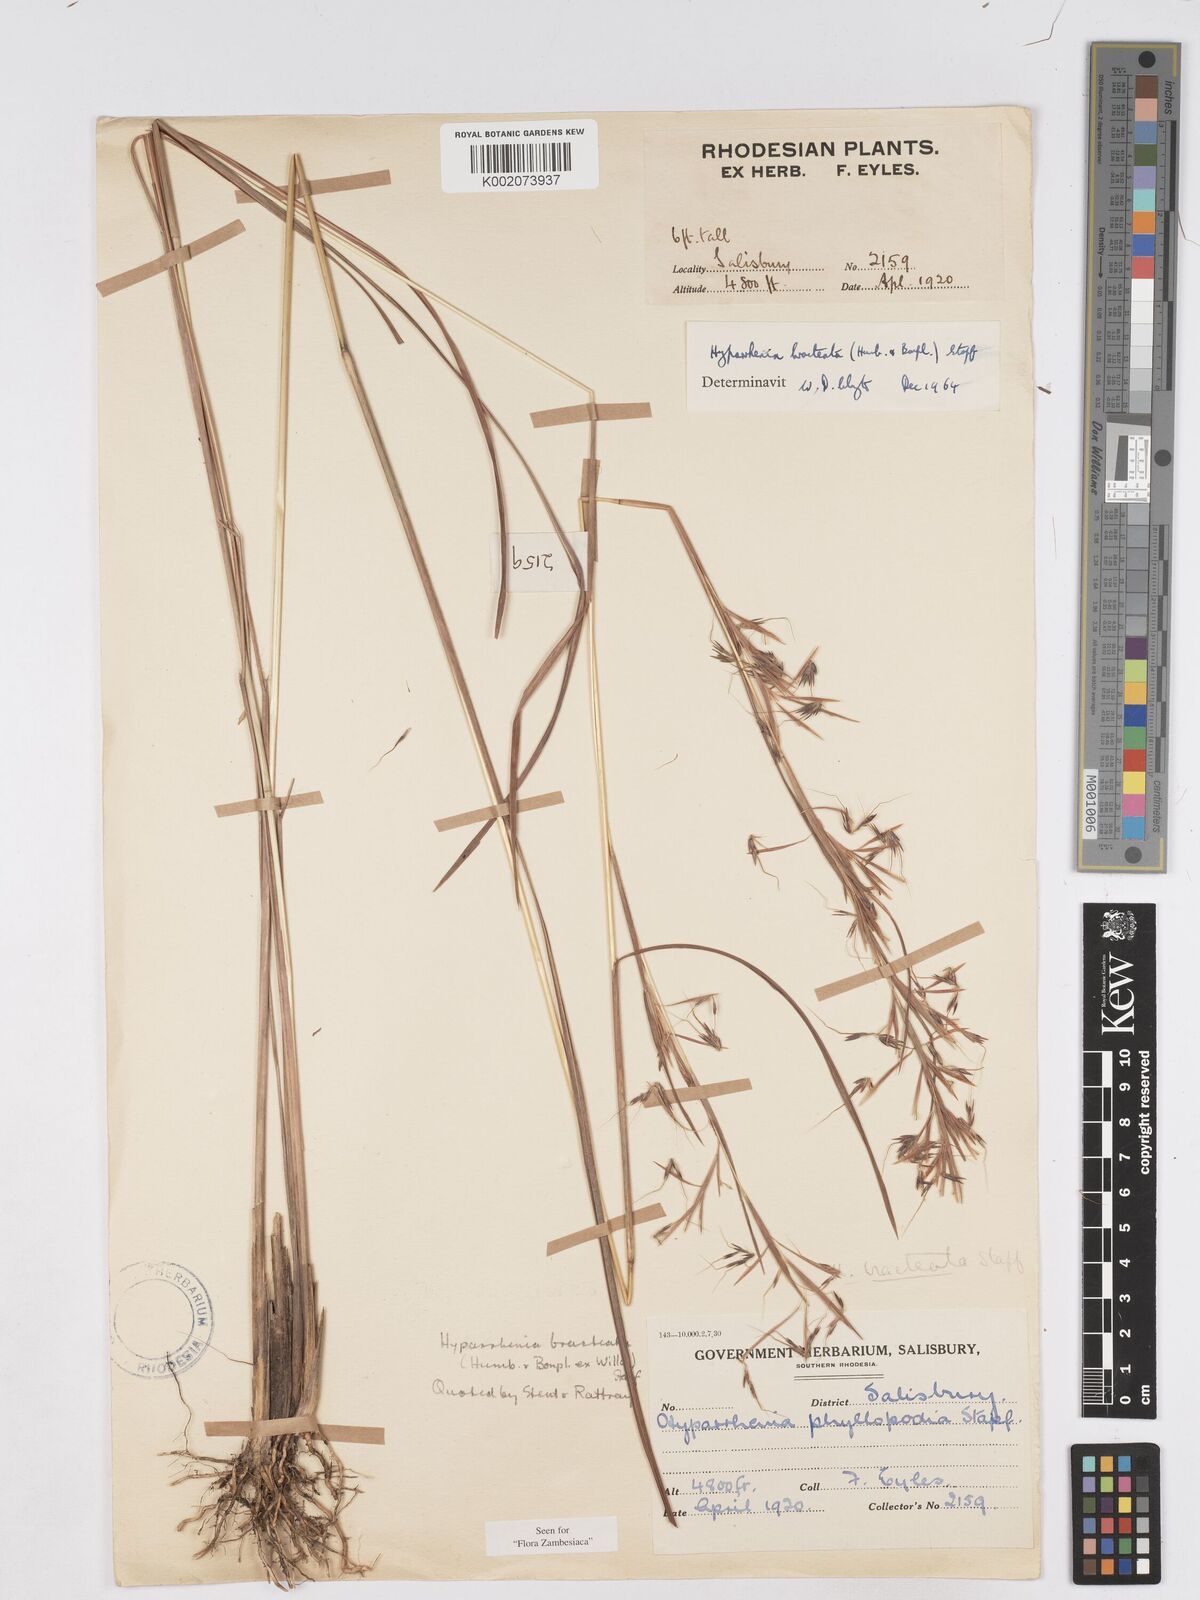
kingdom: Plantae
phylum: Tracheophyta
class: Liliopsida
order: Poales
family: Poaceae
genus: Hyparrhenia
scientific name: Hyparrhenia bracteata
